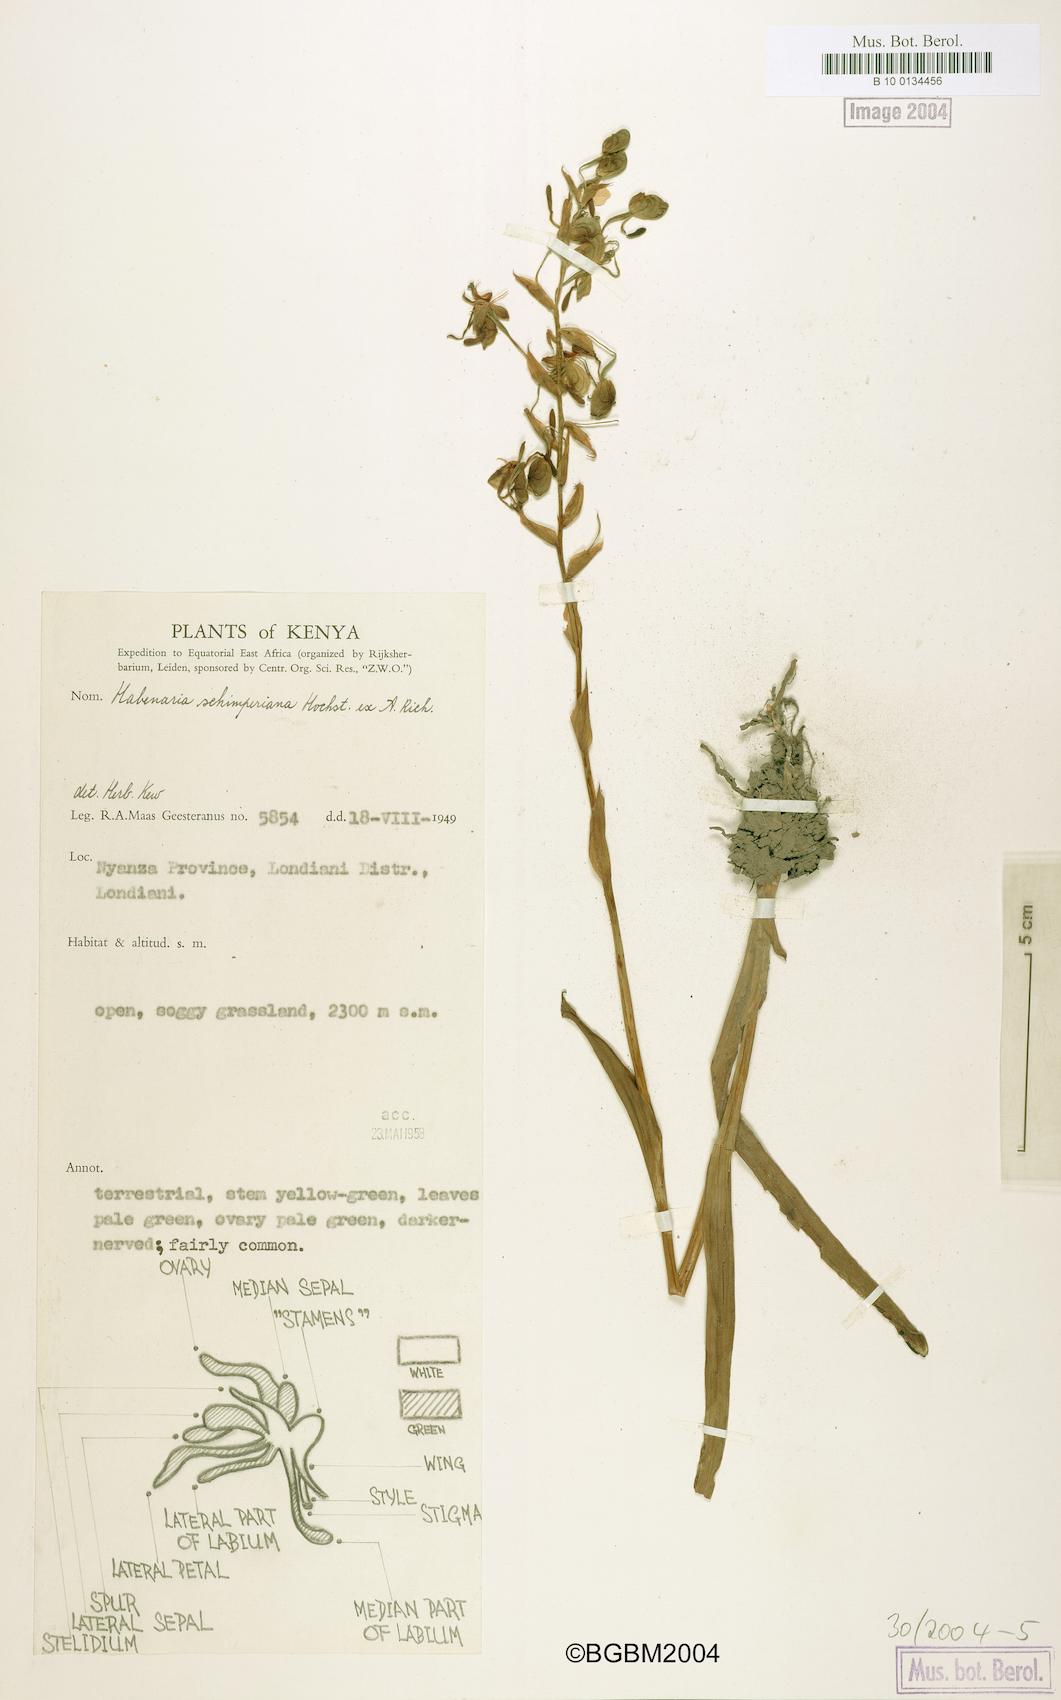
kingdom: Plantae
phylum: Tracheophyta
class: Liliopsida
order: Asparagales
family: Orchidaceae
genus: Habenaria
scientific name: Habenaria schimperiana
